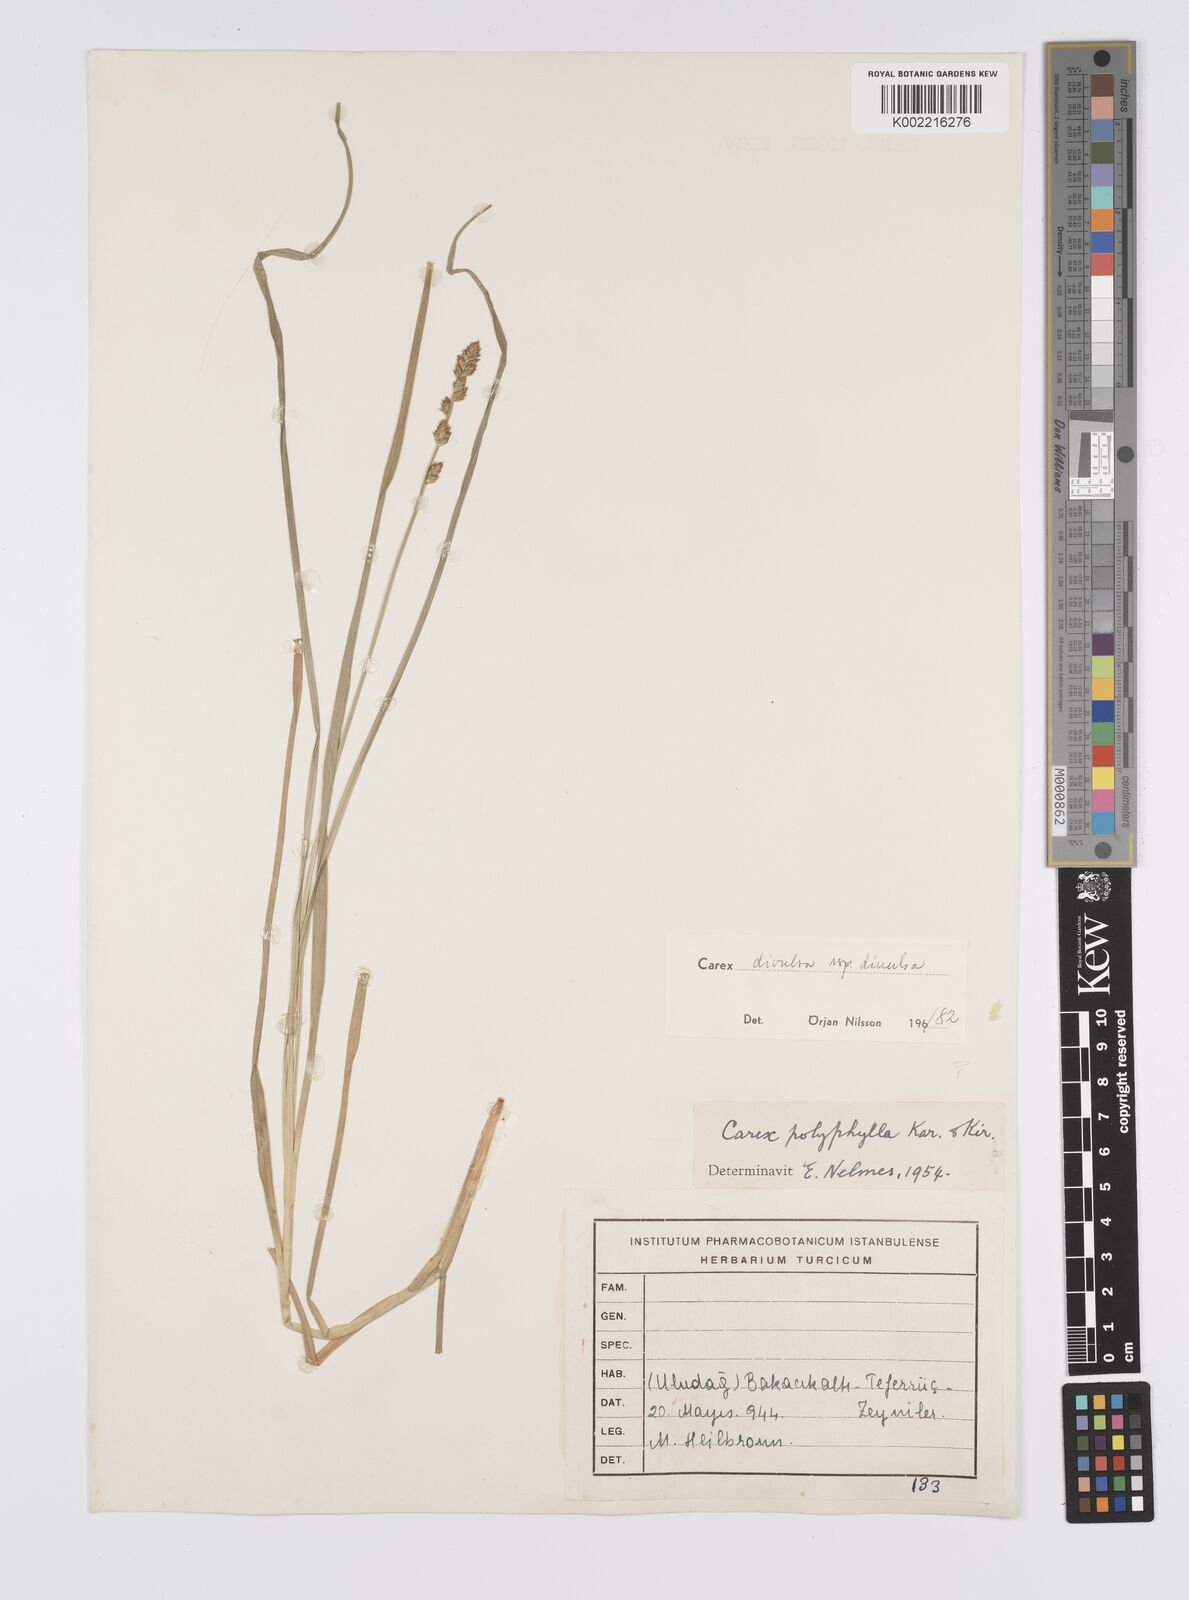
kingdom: Plantae
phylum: Tracheophyta
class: Liliopsida
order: Poales
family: Cyperaceae
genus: Carex
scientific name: Carex divulsa
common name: Grassland sedge
